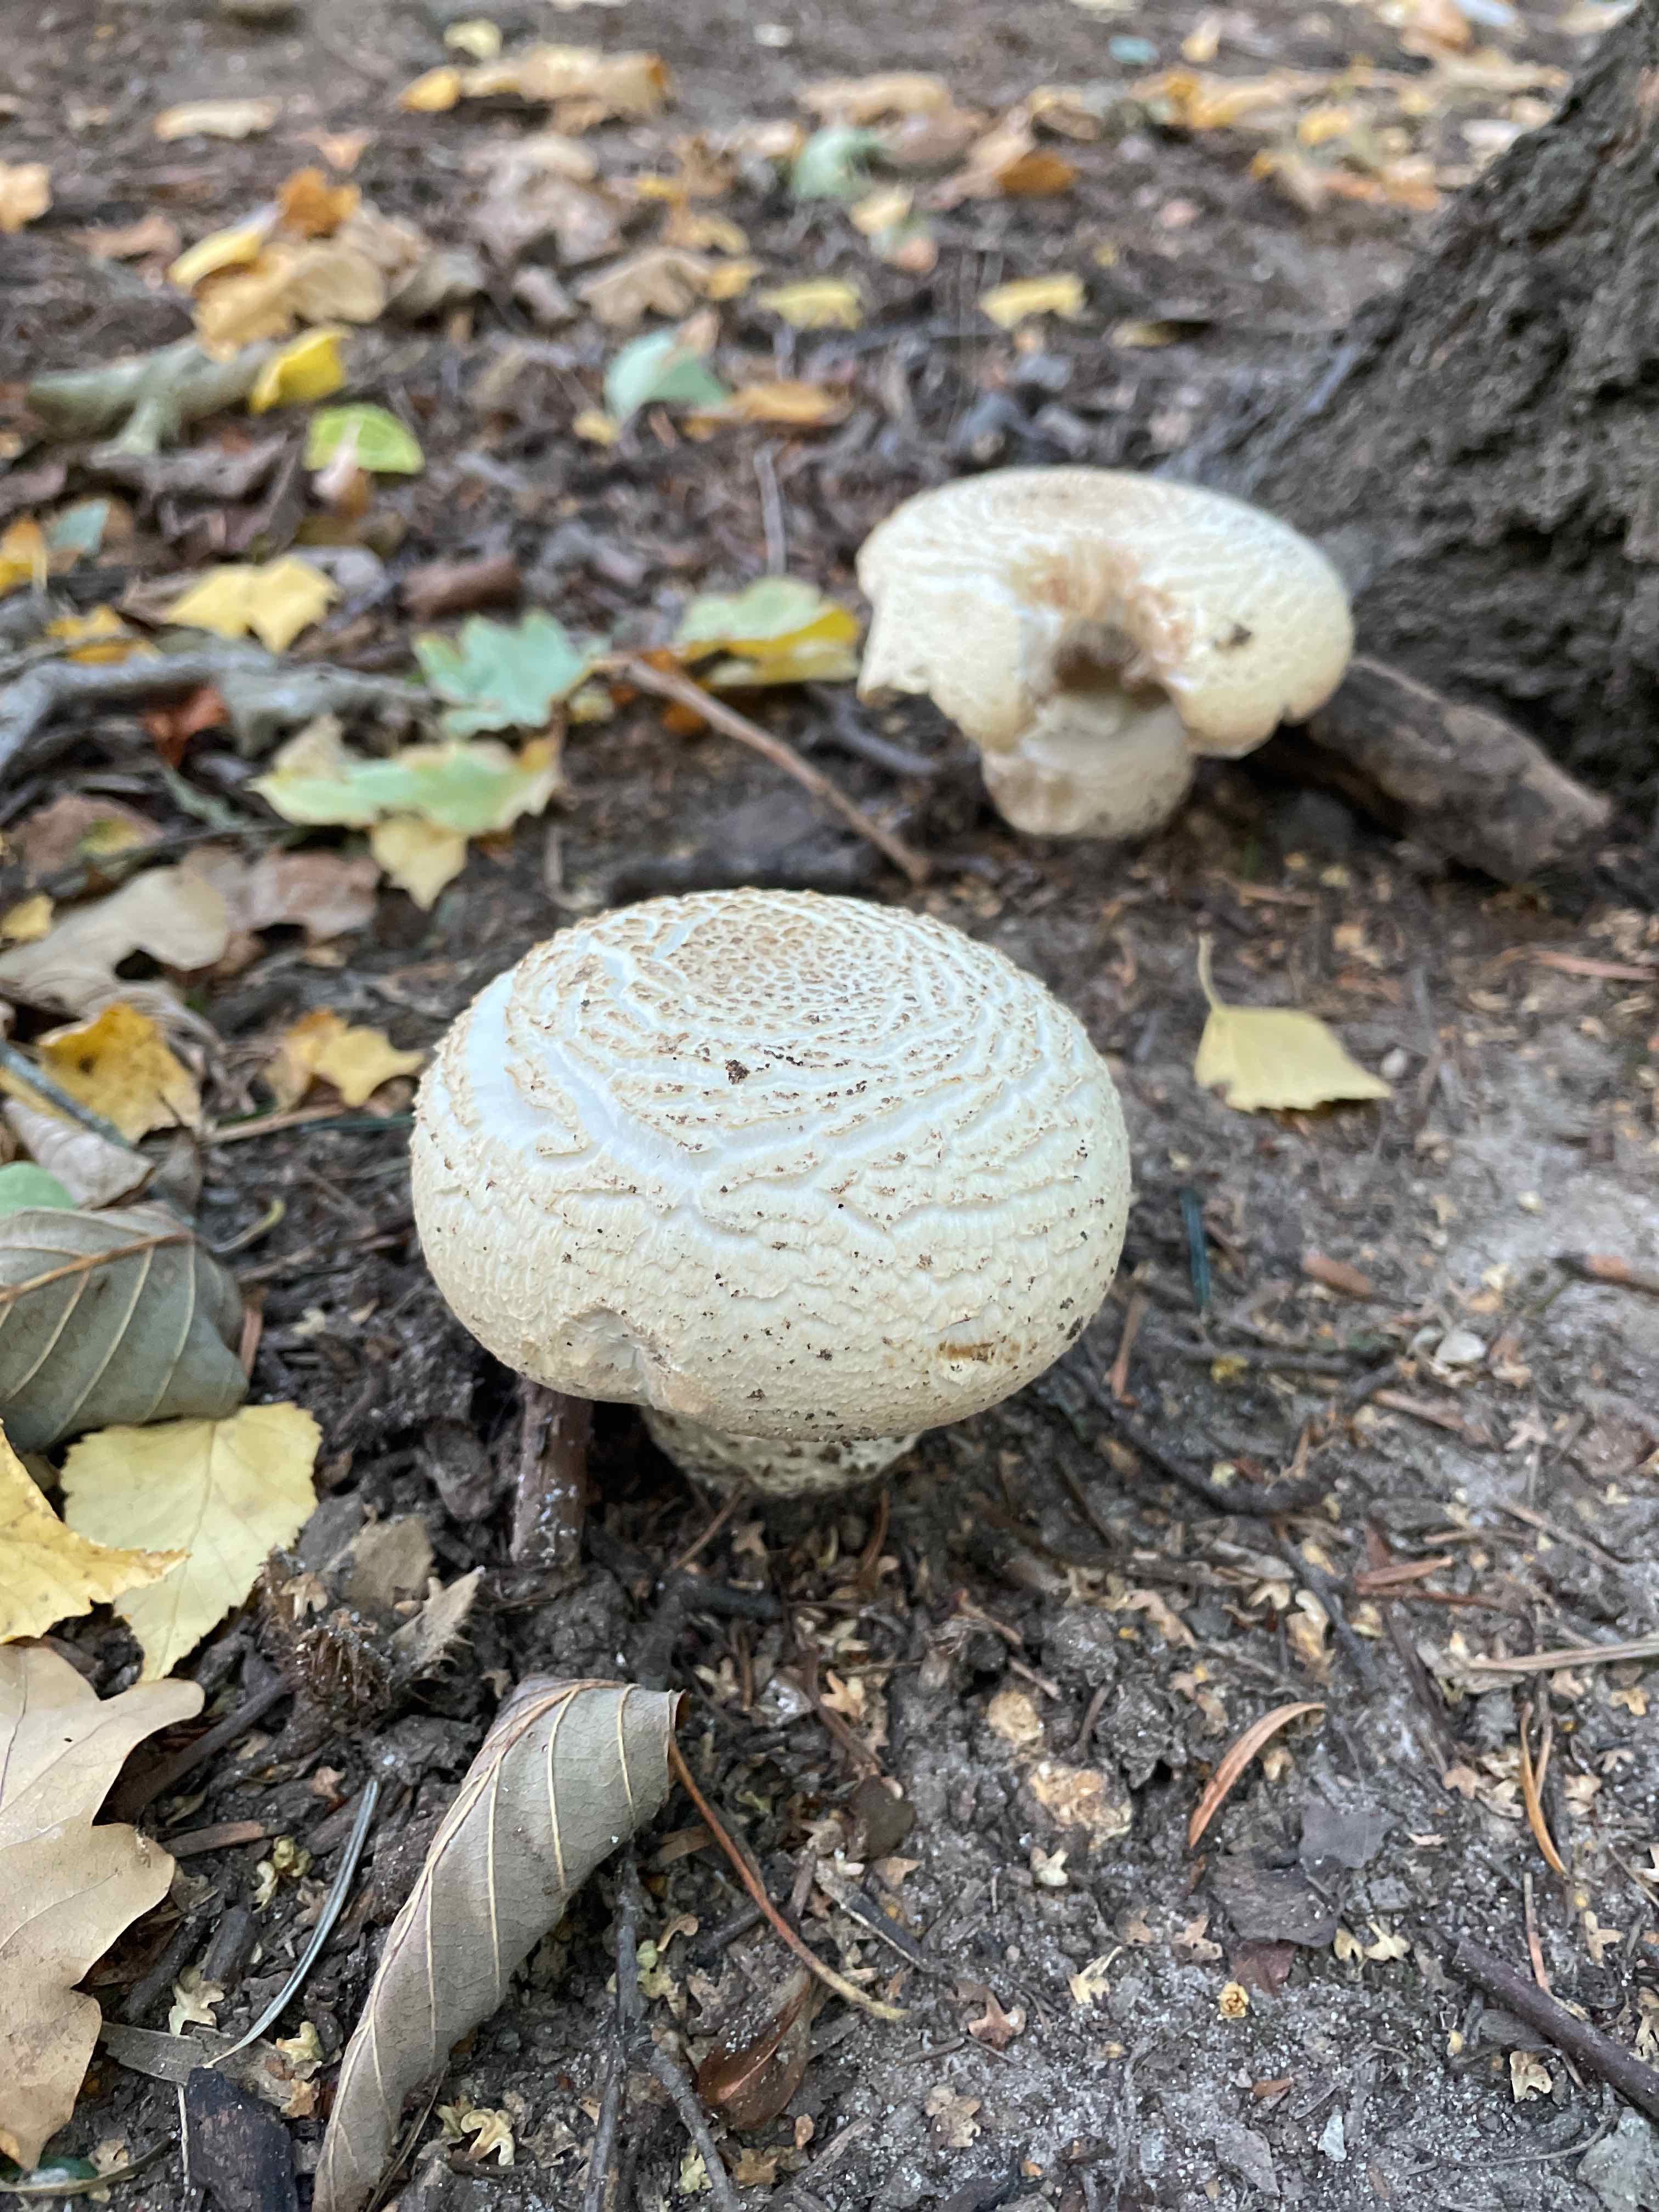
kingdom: Fungi
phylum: Basidiomycota
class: Agaricomycetes
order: Agaricales
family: Agaricaceae
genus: Agaricus
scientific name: Agaricus
